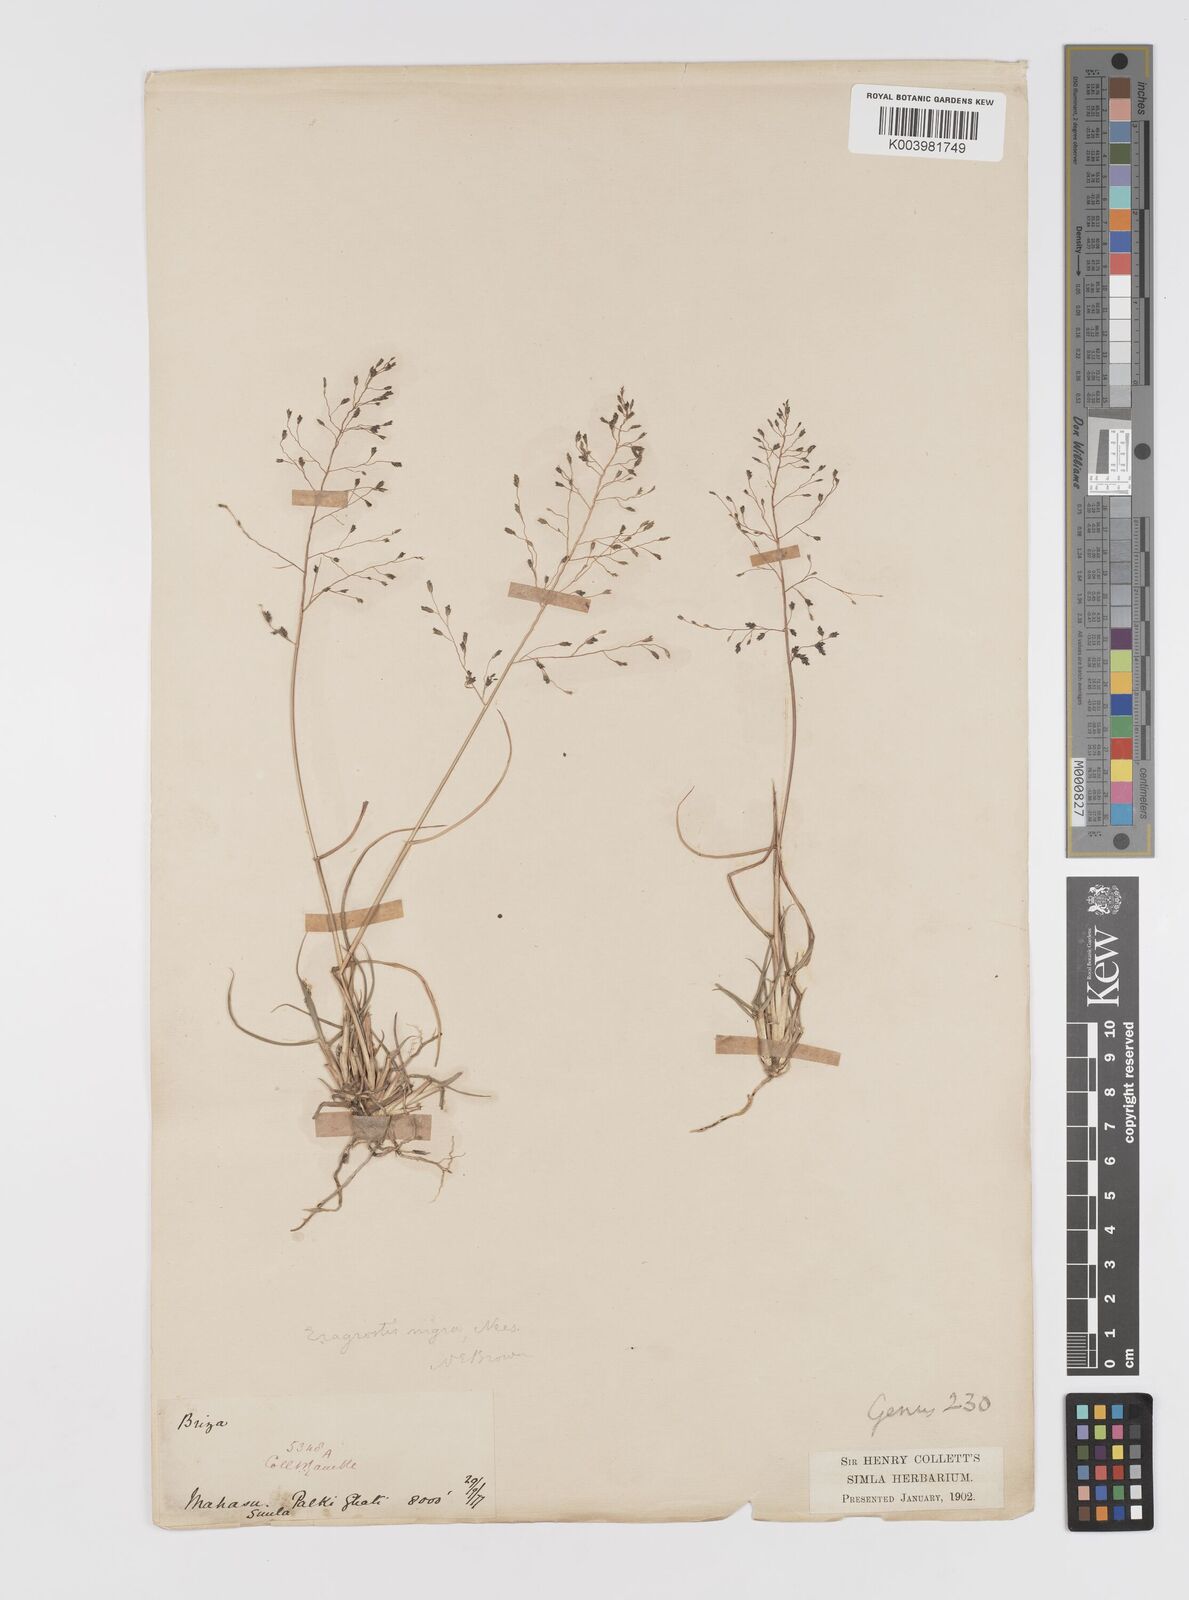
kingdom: Plantae
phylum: Tracheophyta
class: Liliopsida
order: Poales
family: Poaceae
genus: Eragrostis
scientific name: Eragrostis nigra
